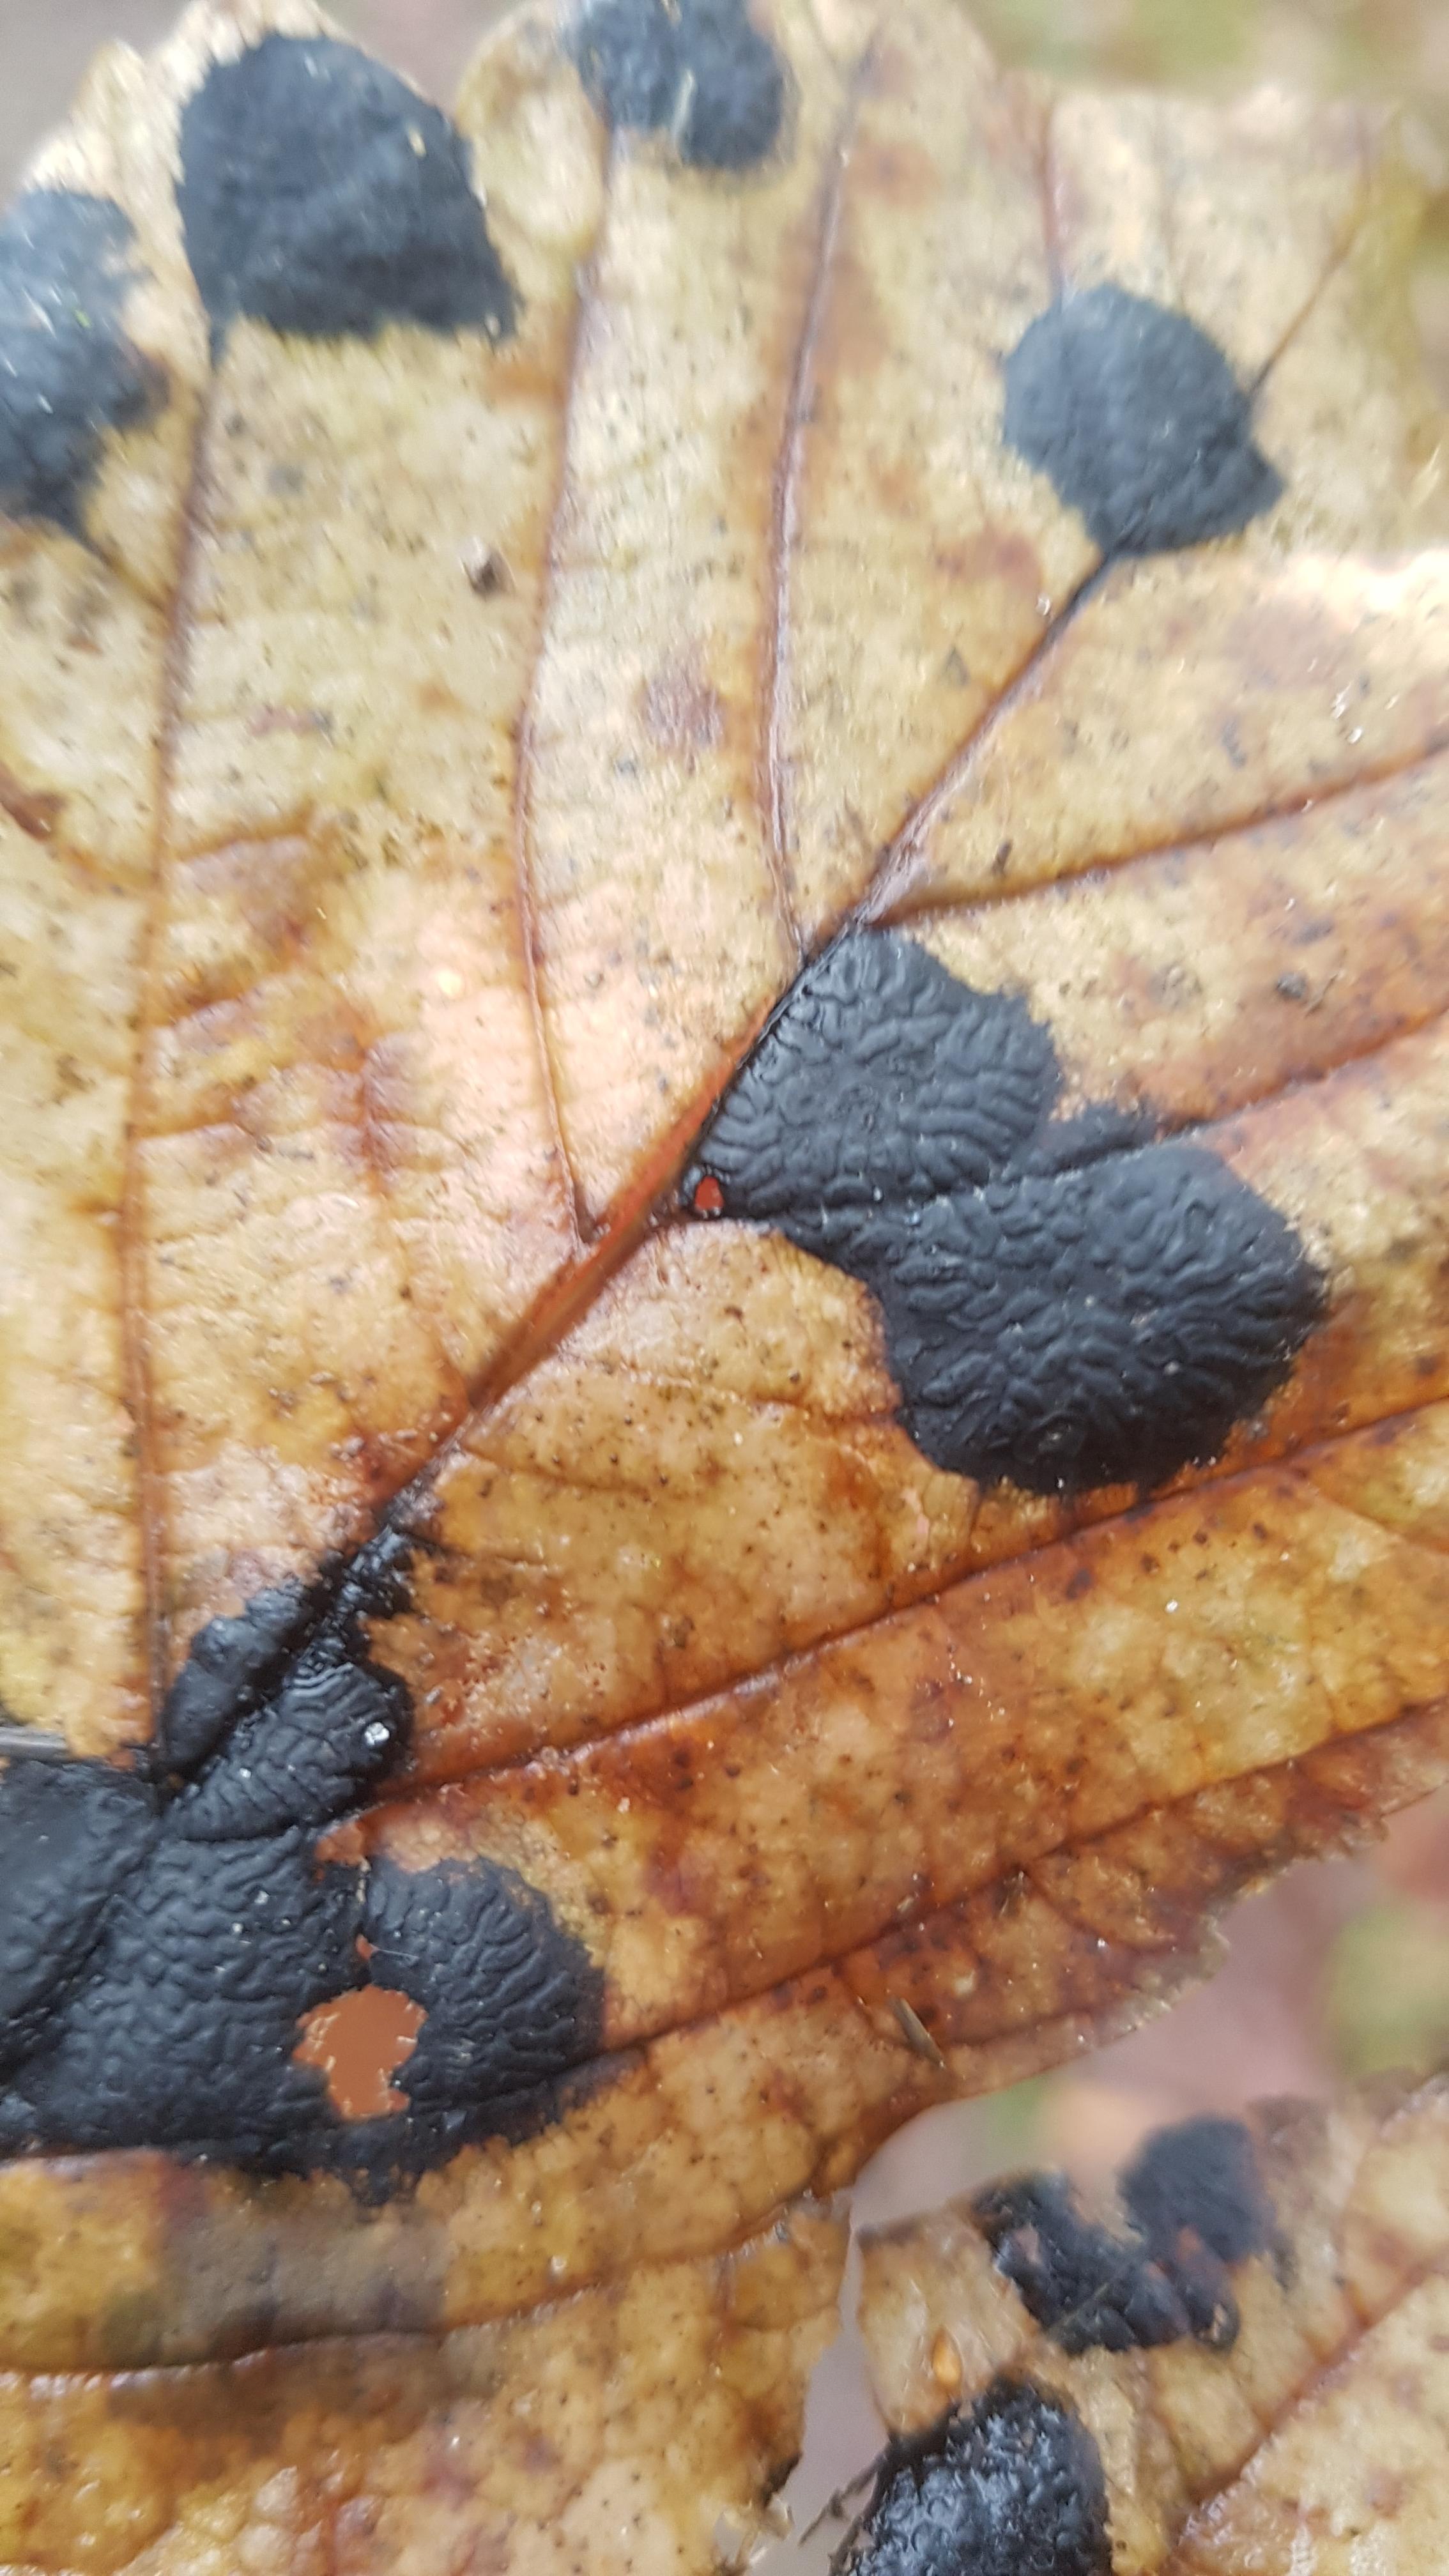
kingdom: Fungi
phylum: Ascomycota
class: Leotiomycetes
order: Rhytismatales
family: Rhytismataceae
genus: Rhytisma
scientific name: Rhytisma acerinum
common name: ahorn-rynkeplet
